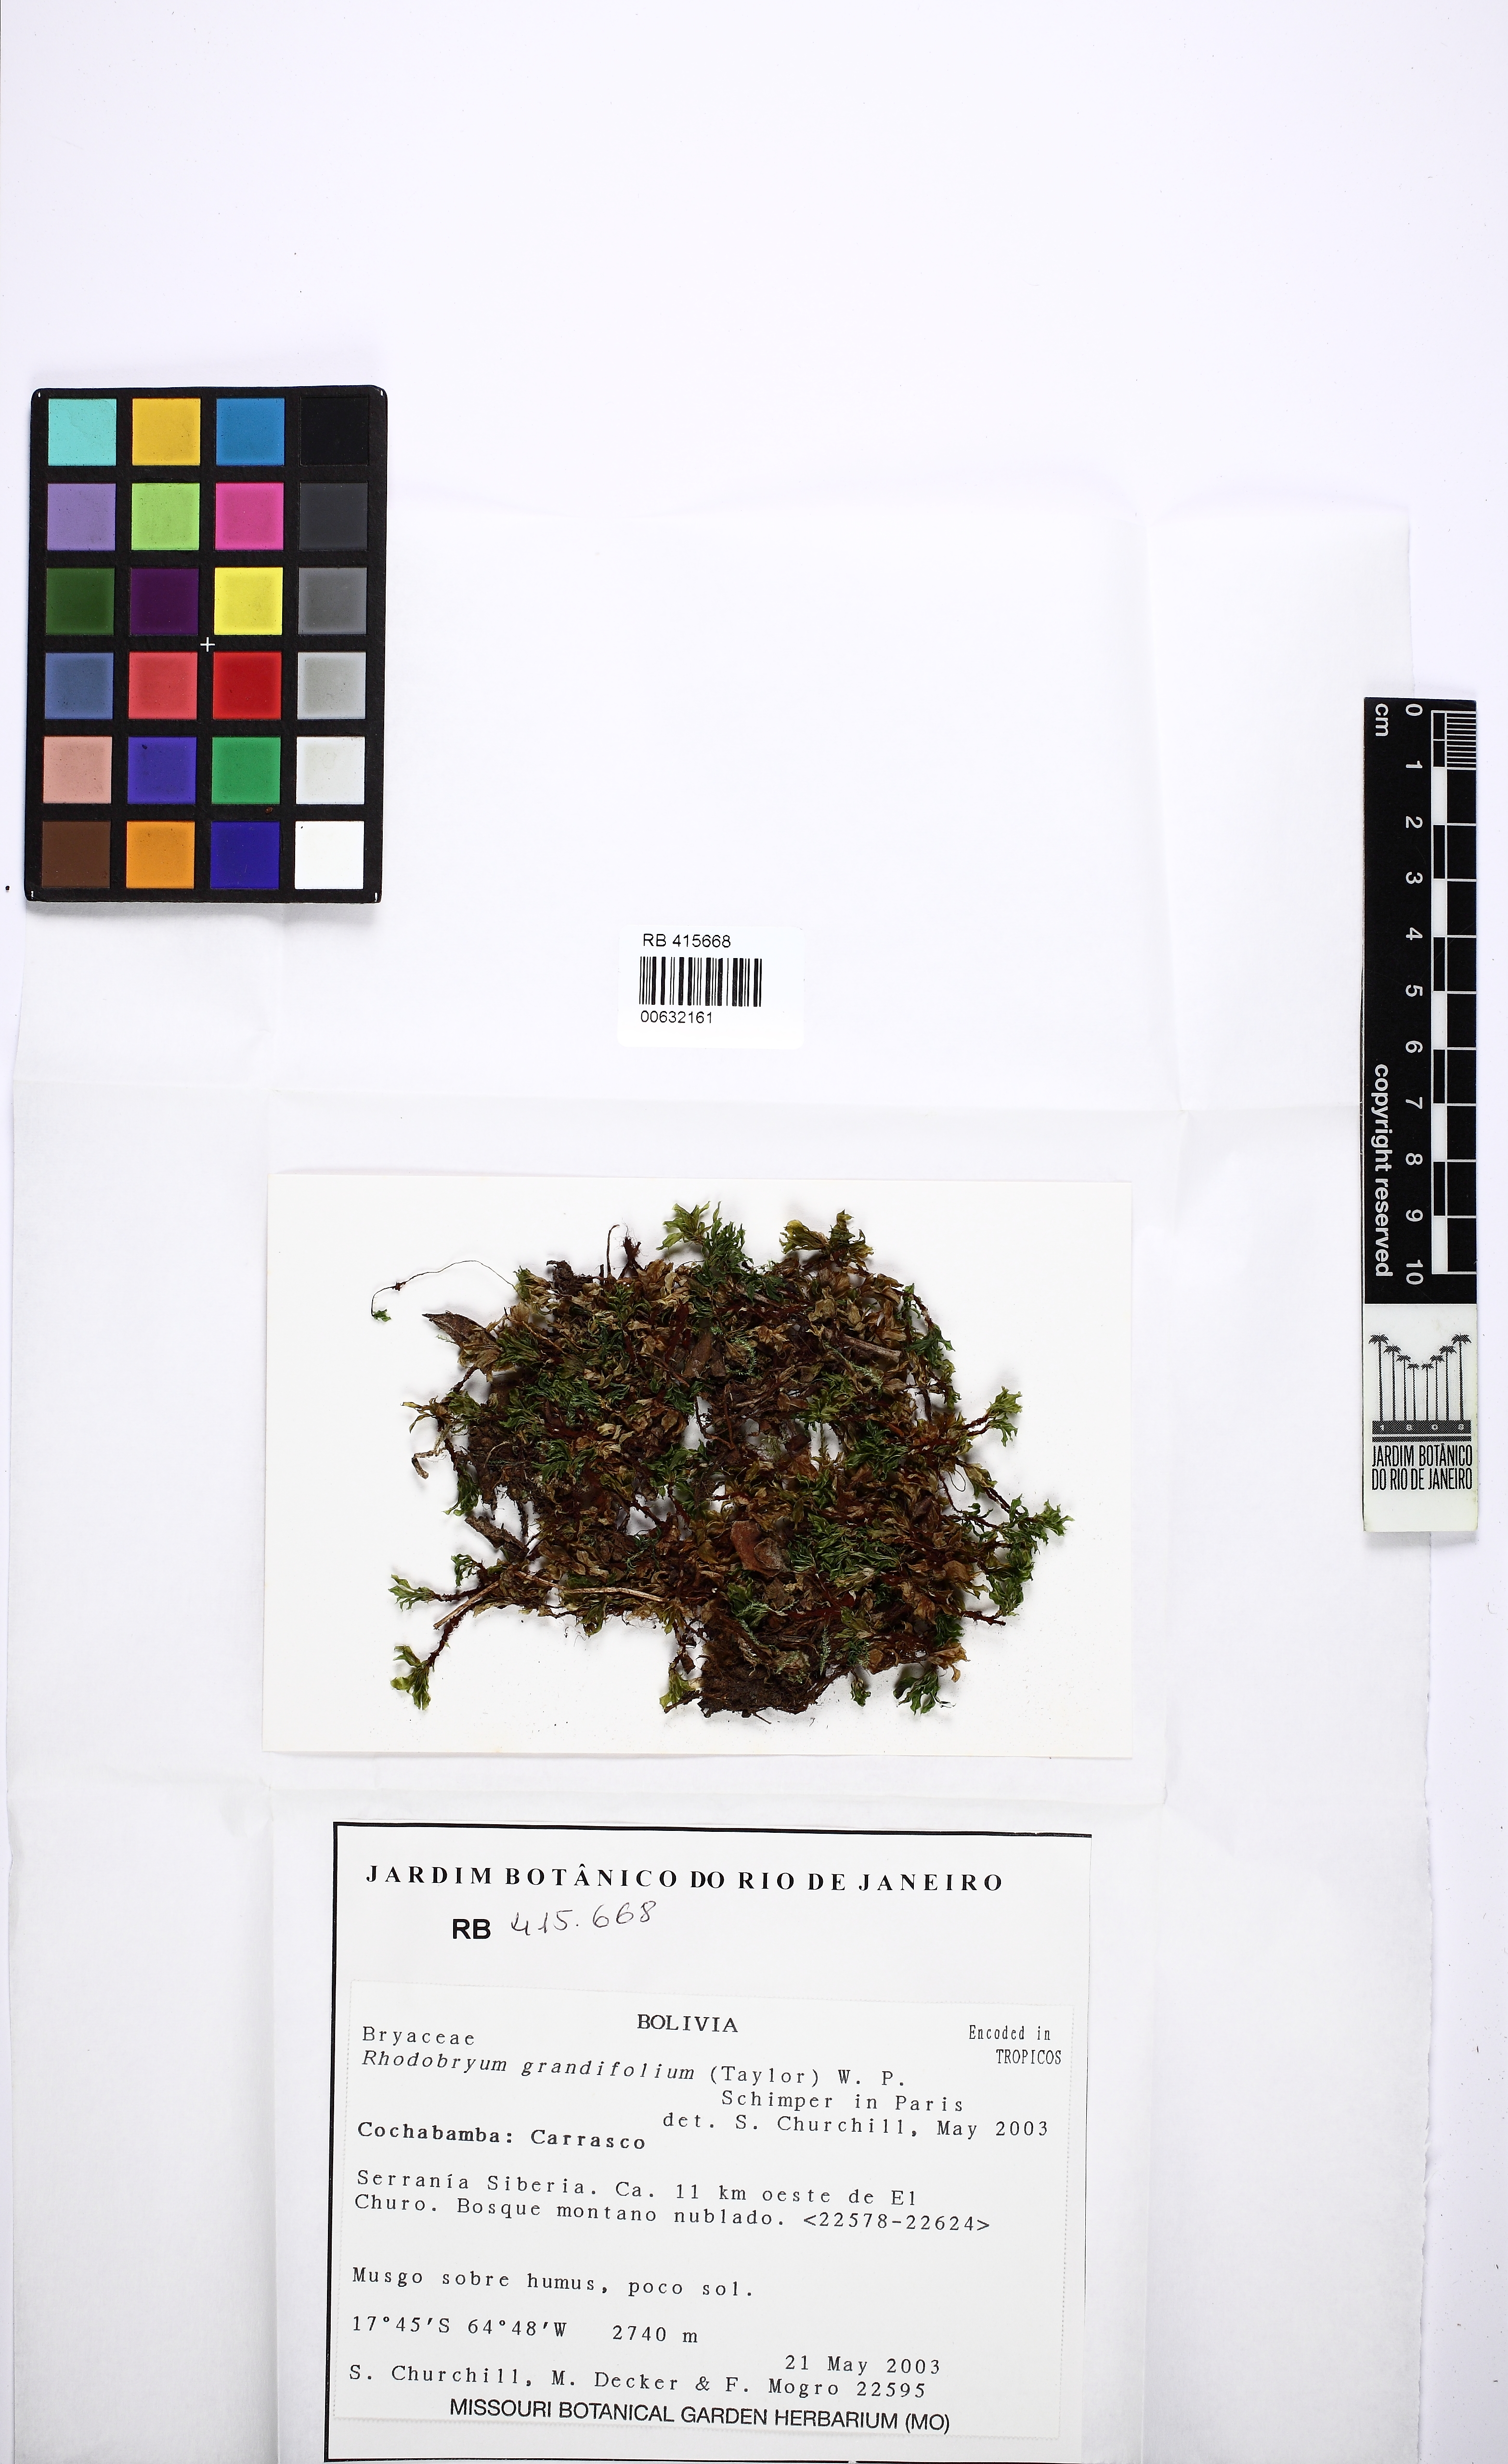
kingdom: Plantae
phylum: Bryophyta
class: Bryopsida
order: Bryales
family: Bryaceae
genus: Rhodobryum
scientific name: Rhodobryum grandifolium
